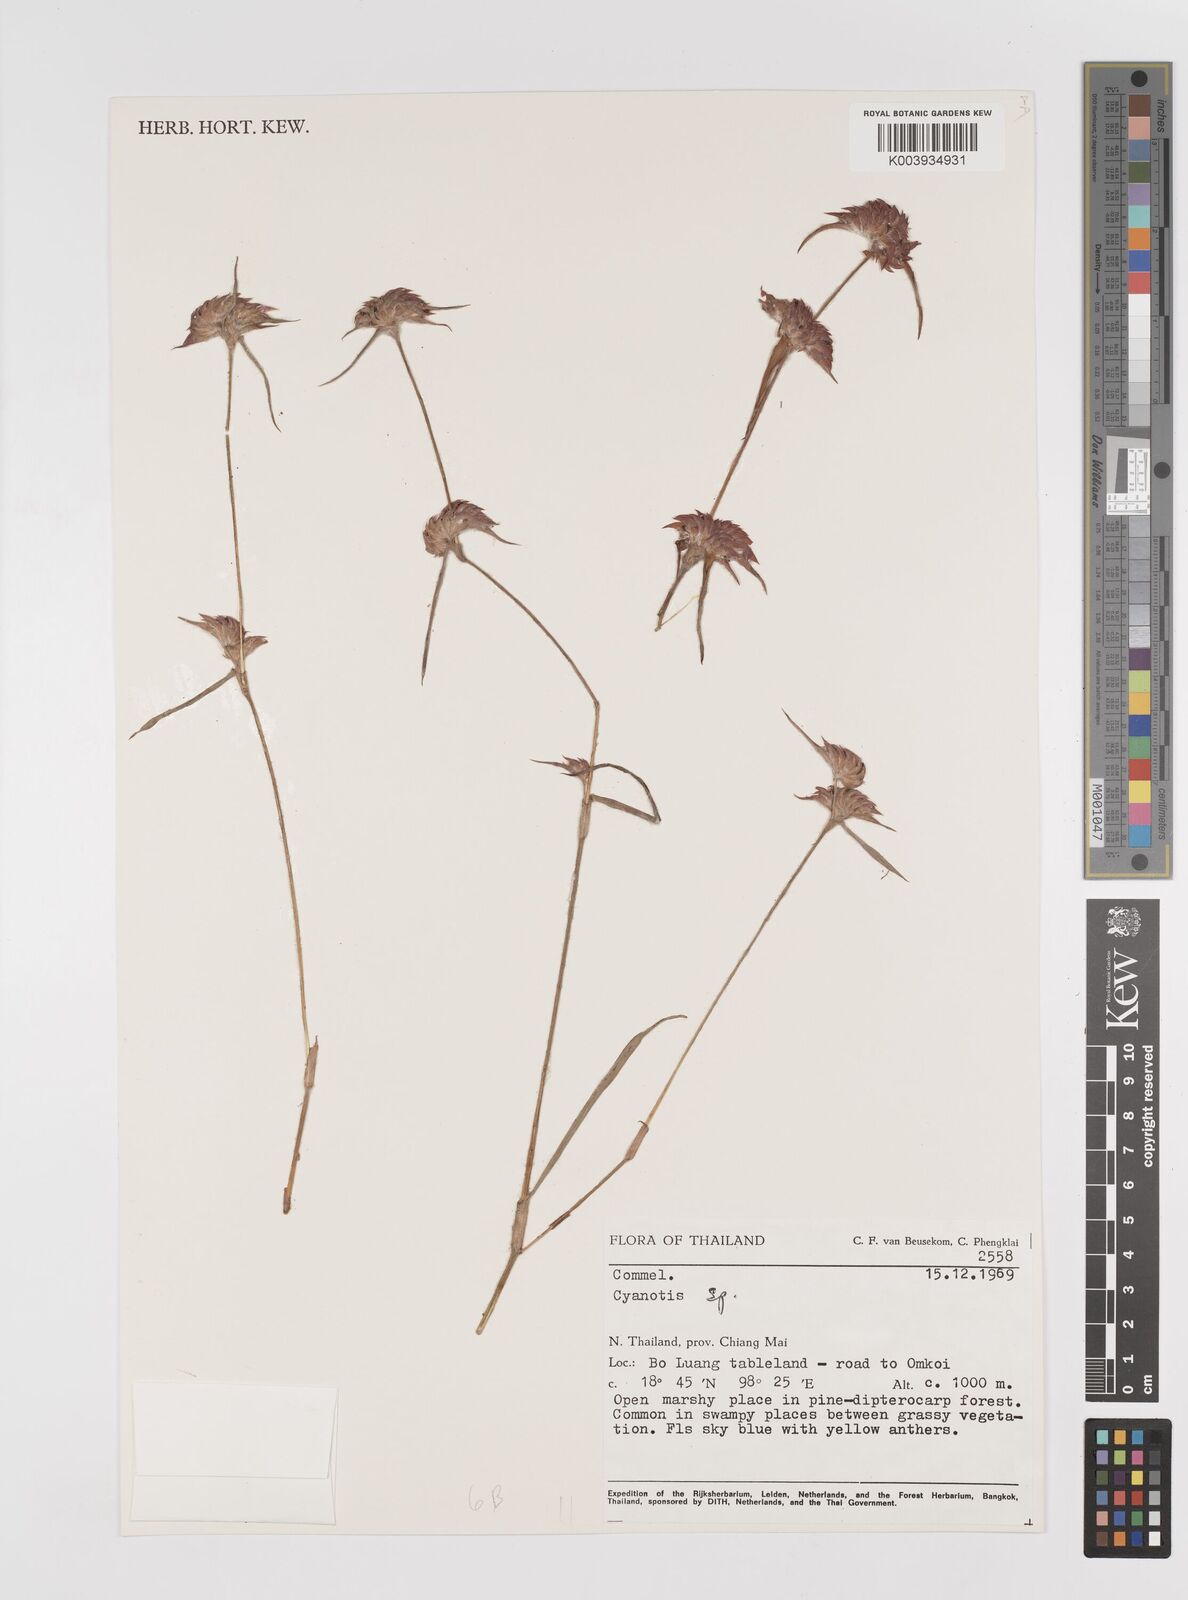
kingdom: Plantae
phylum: Tracheophyta
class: Liliopsida
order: Commelinales
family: Commelinaceae
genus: Cyanotis
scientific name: Cyanotis
